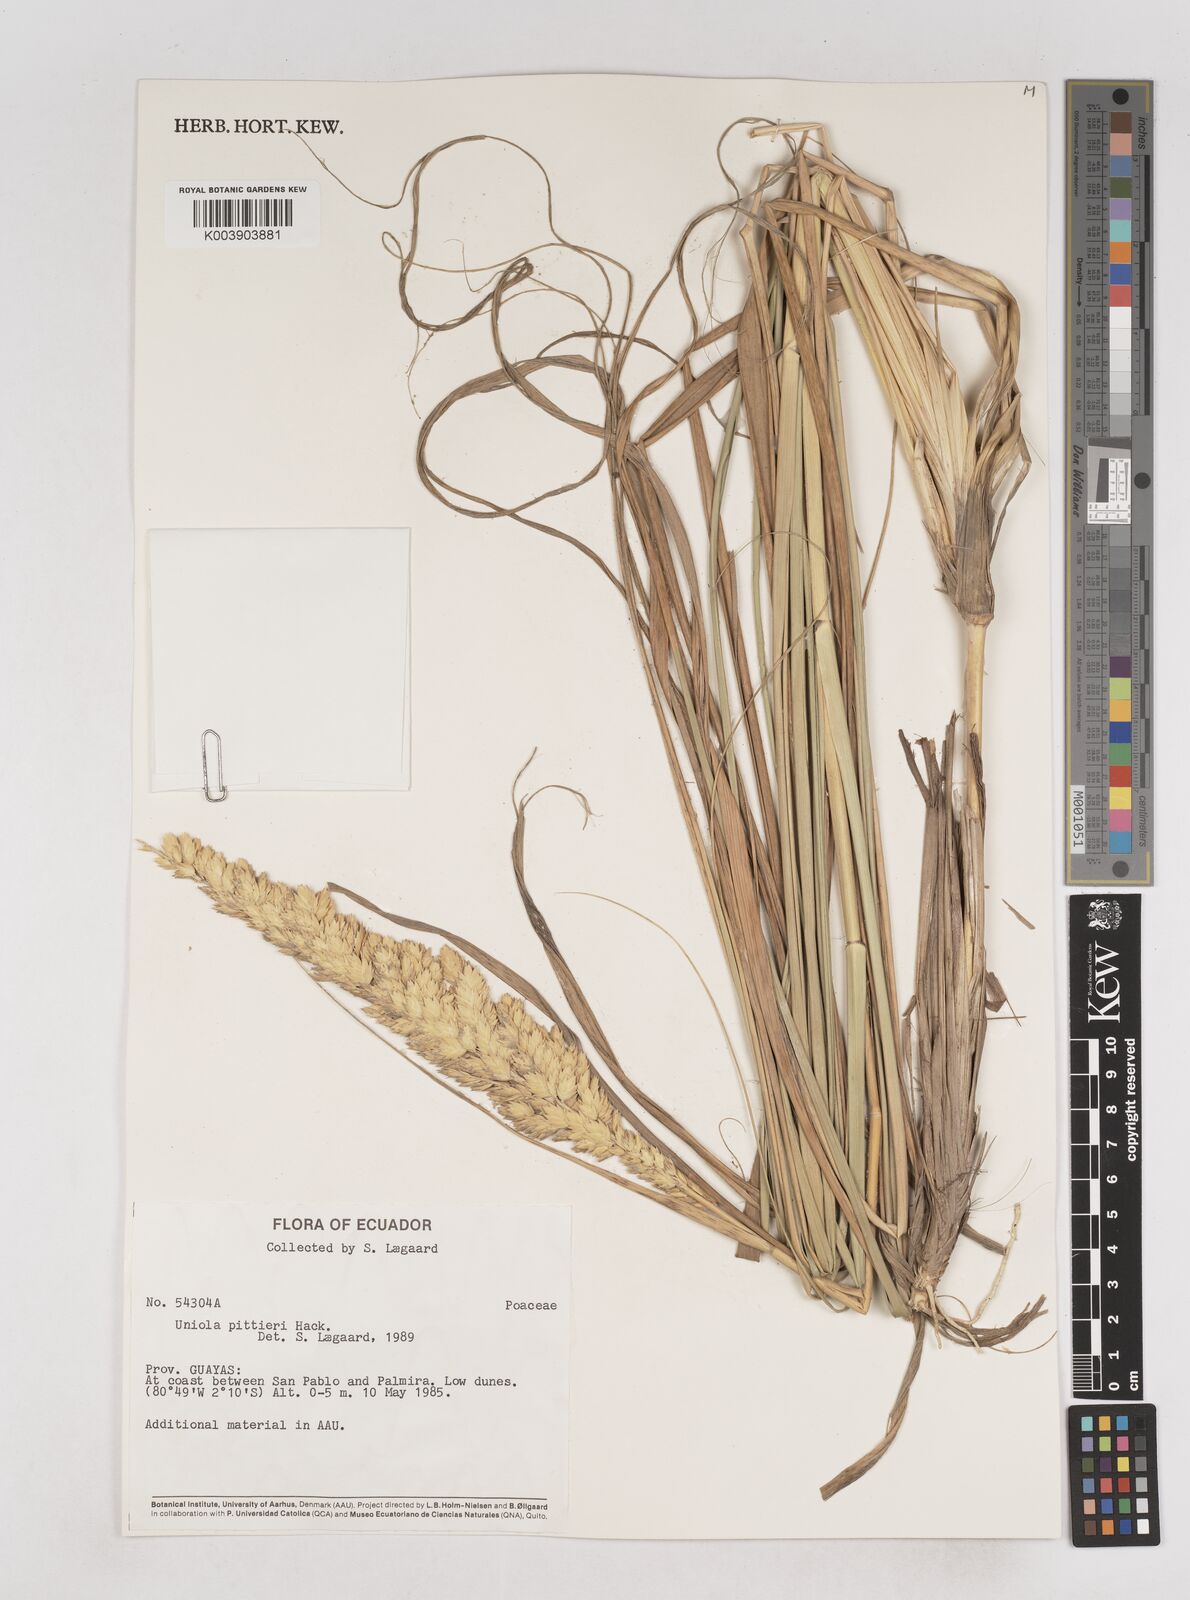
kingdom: Plantae
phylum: Tracheophyta
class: Liliopsida
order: Poales
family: Poaceae
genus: Uniola
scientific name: Uniola pittieri
